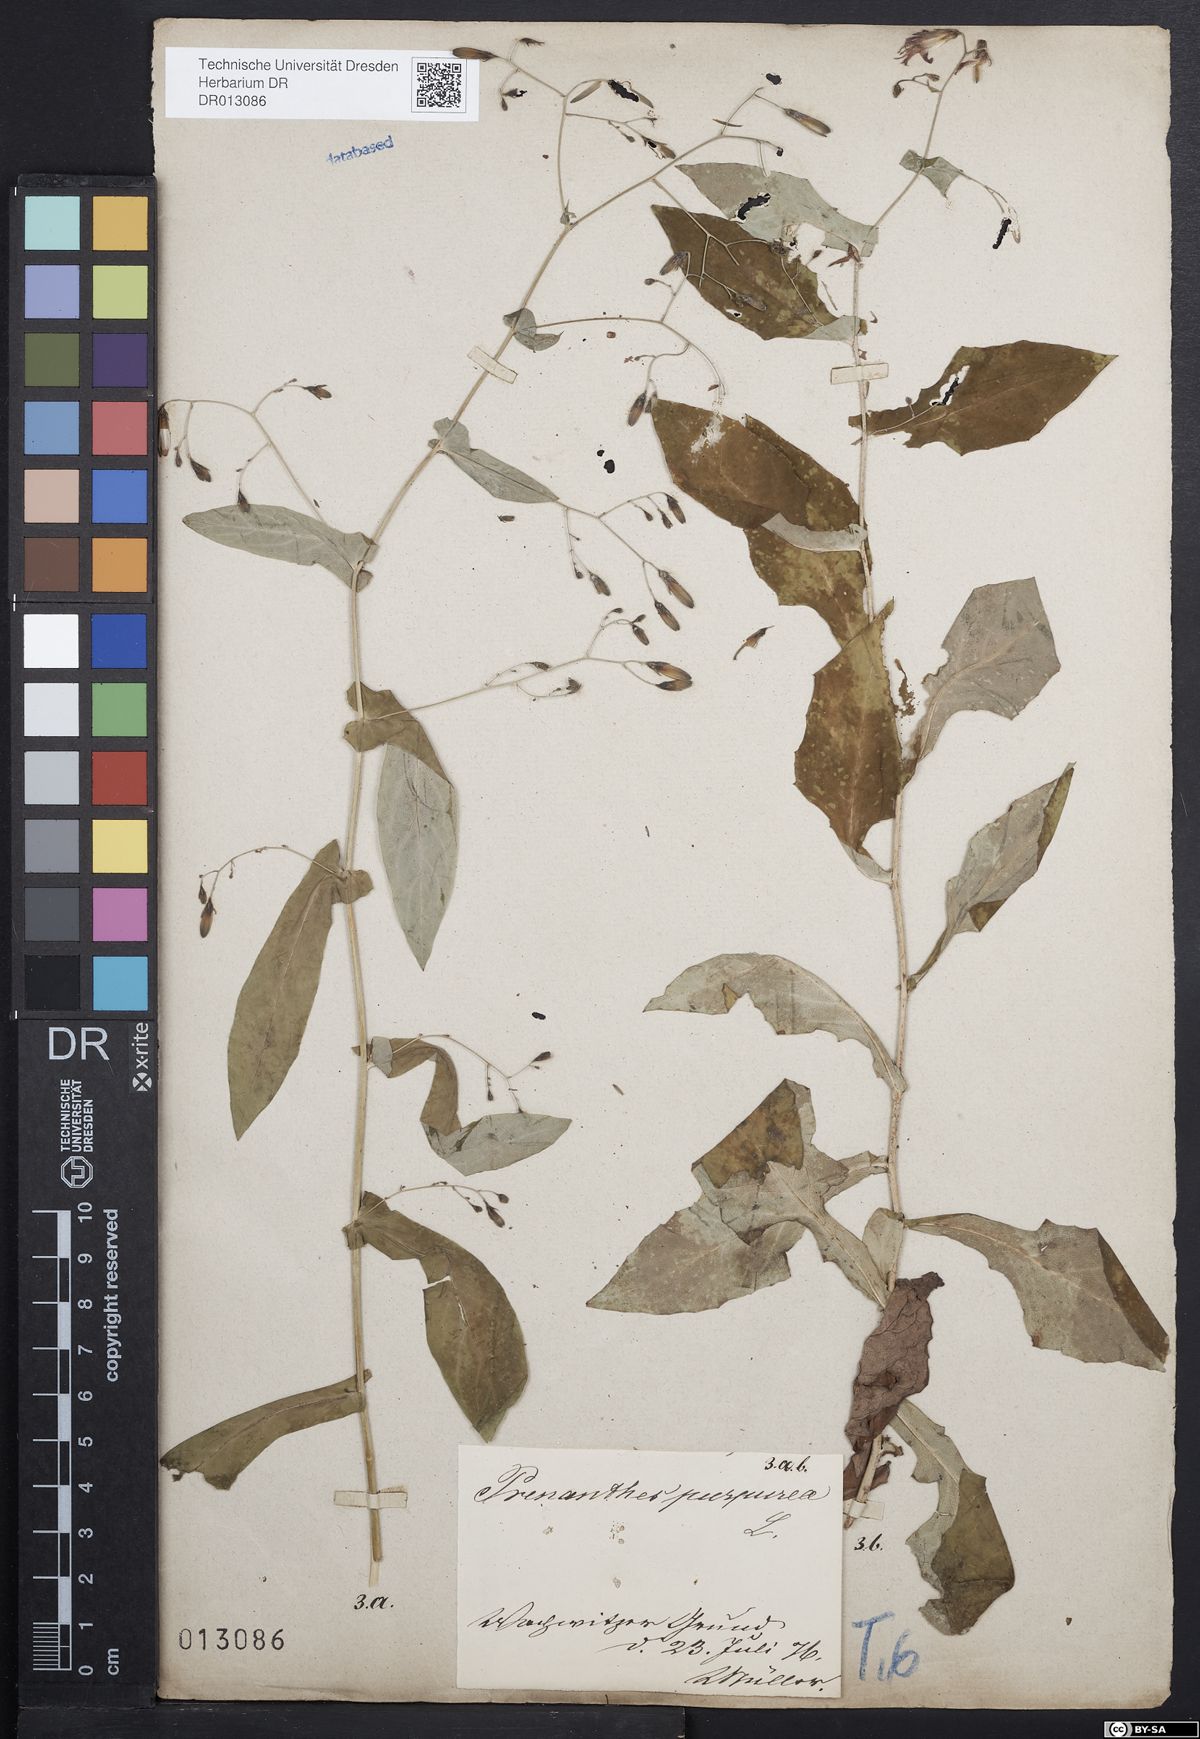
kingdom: Plantae
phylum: Tracheophyta
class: Magnoliopsida
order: Asterales
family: Asteraceae
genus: Prenanthes
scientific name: Prenanthes purpurea
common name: Purple lettuce
